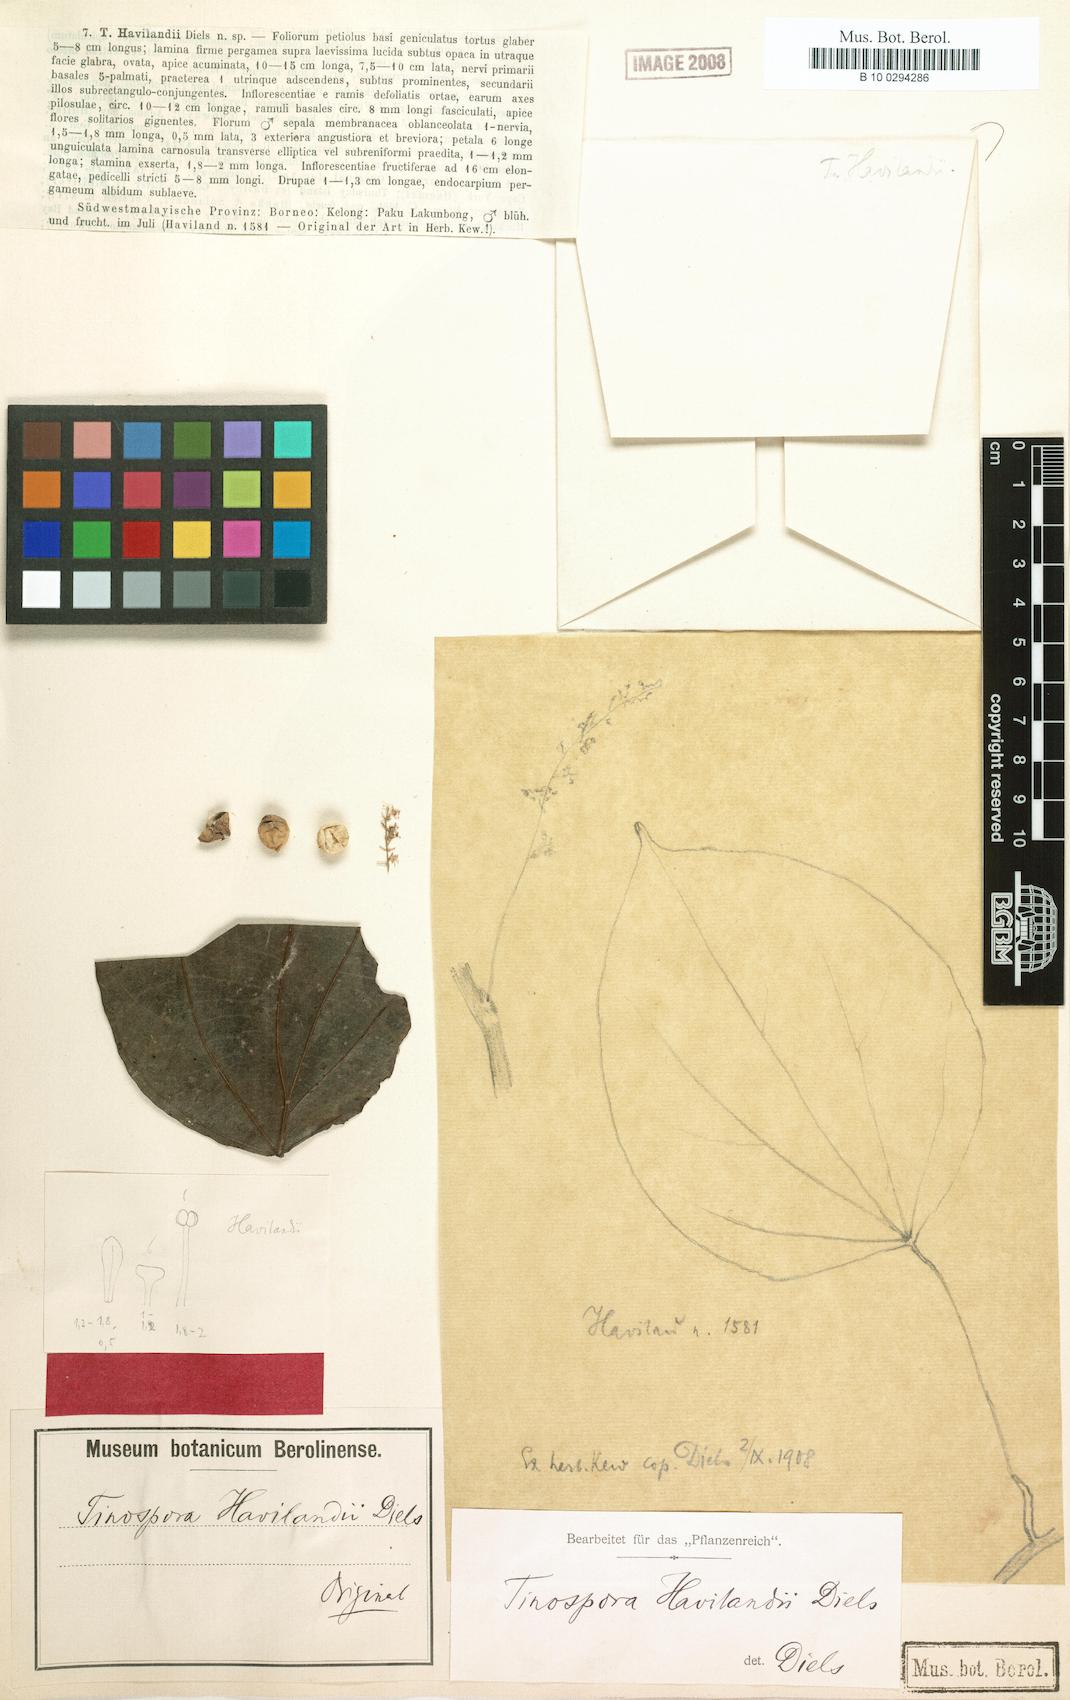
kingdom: Plantae
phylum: Tracheophyta
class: Magnoliopsida
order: Ranunculales
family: Menispermaceae
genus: Arcangelisia
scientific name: Arcangelisia flava
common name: Yellow-fruit moonseed
